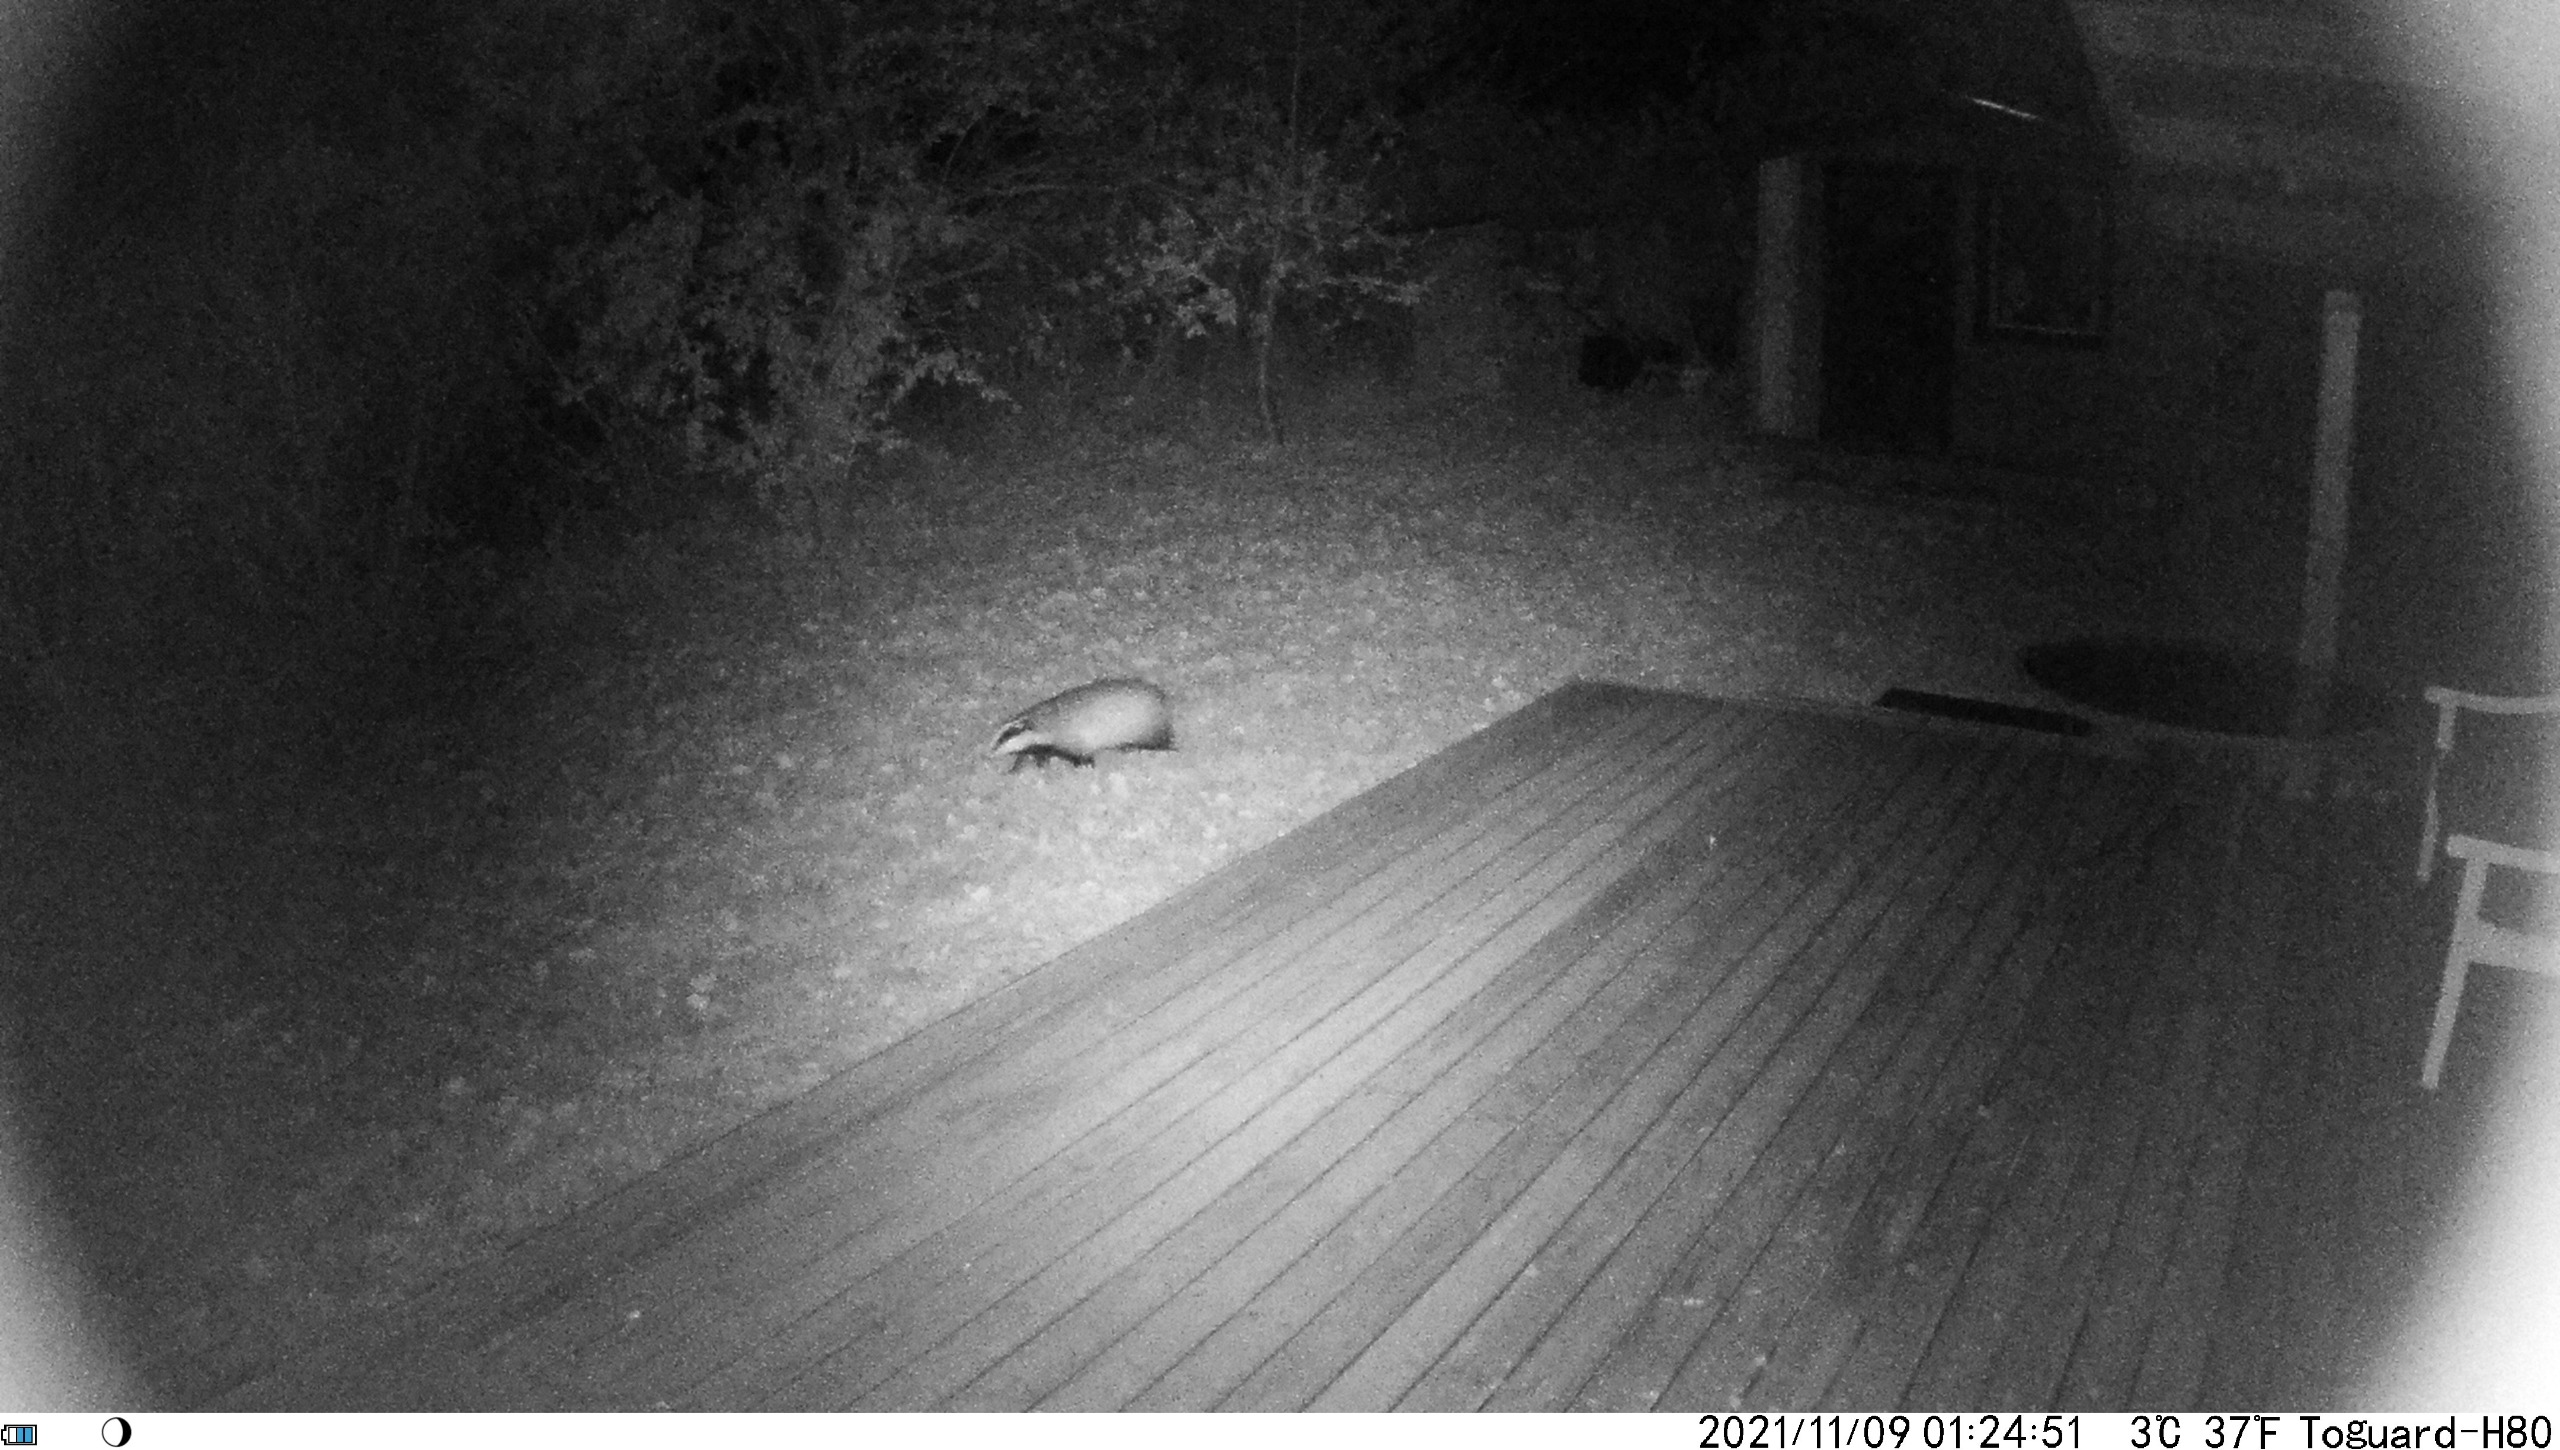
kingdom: Animalia
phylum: Chordata
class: Mammalia
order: Carnivora
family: Mustelidae
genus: Meles
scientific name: Meles meles
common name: Grævling
